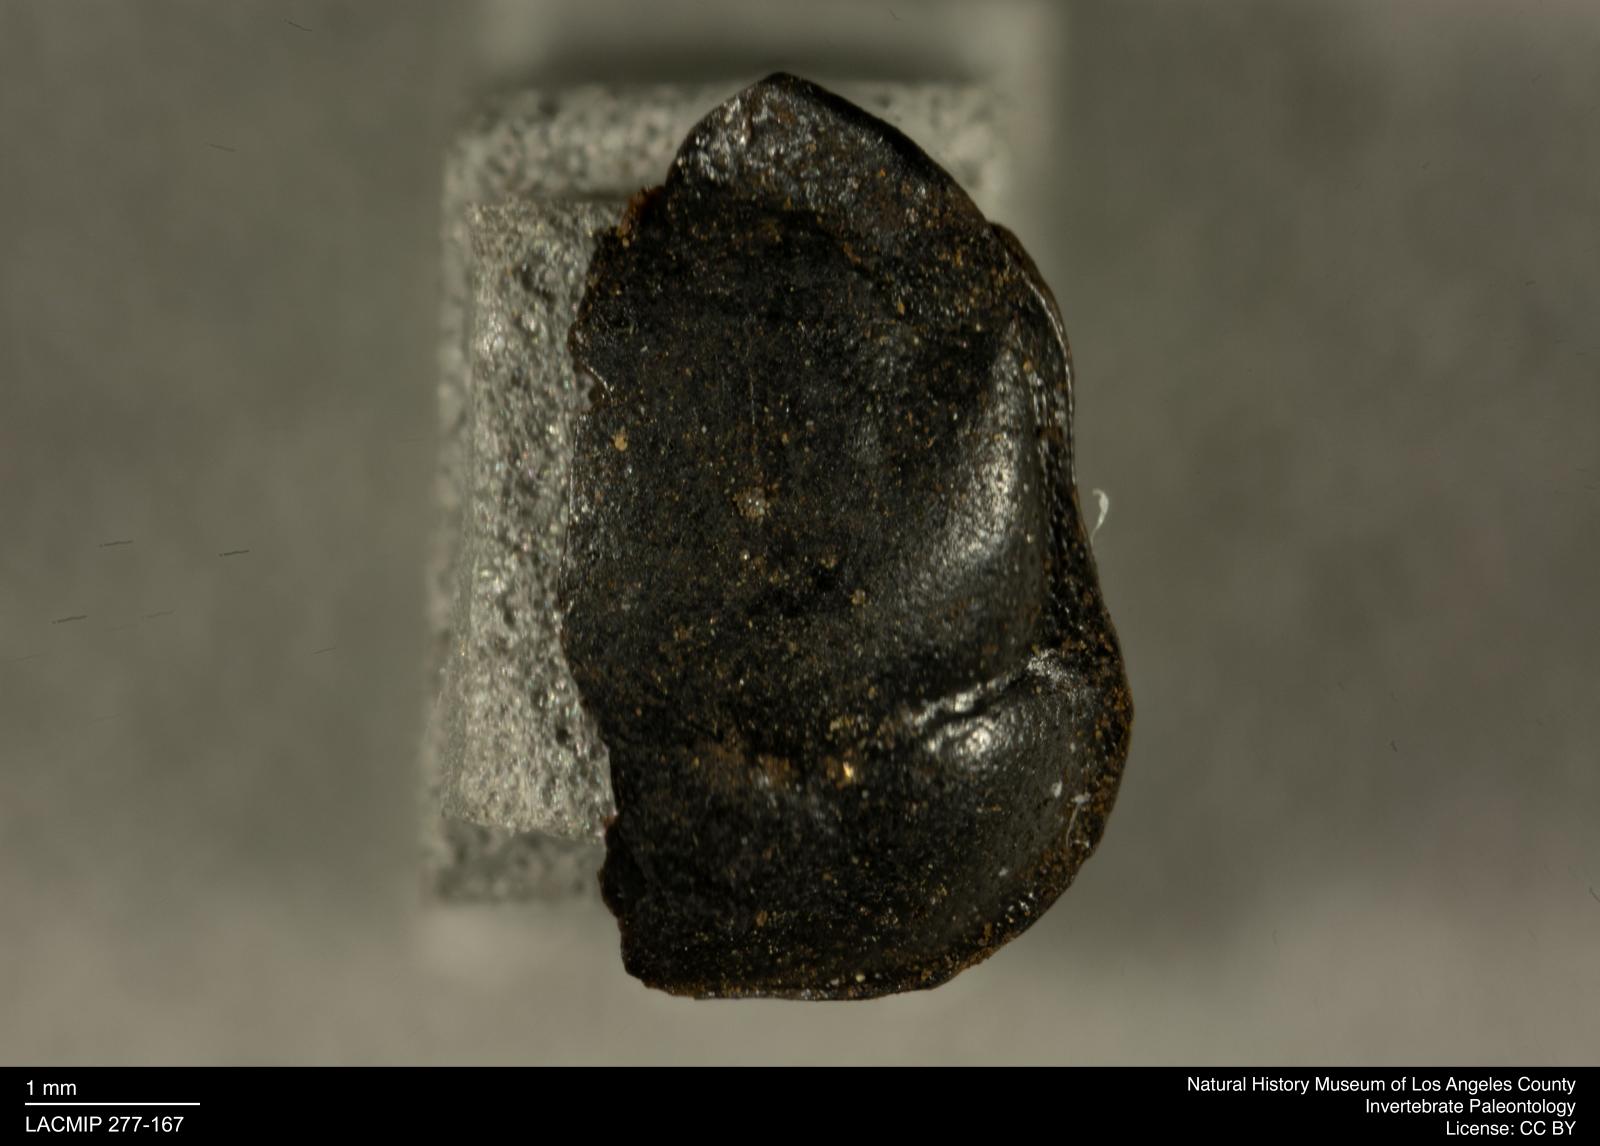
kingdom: Animalia
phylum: Arthropoda
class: Insecta
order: Coleoptera
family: Staphylinidae
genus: Nicrophorus
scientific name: Nicrophorus marginatus
